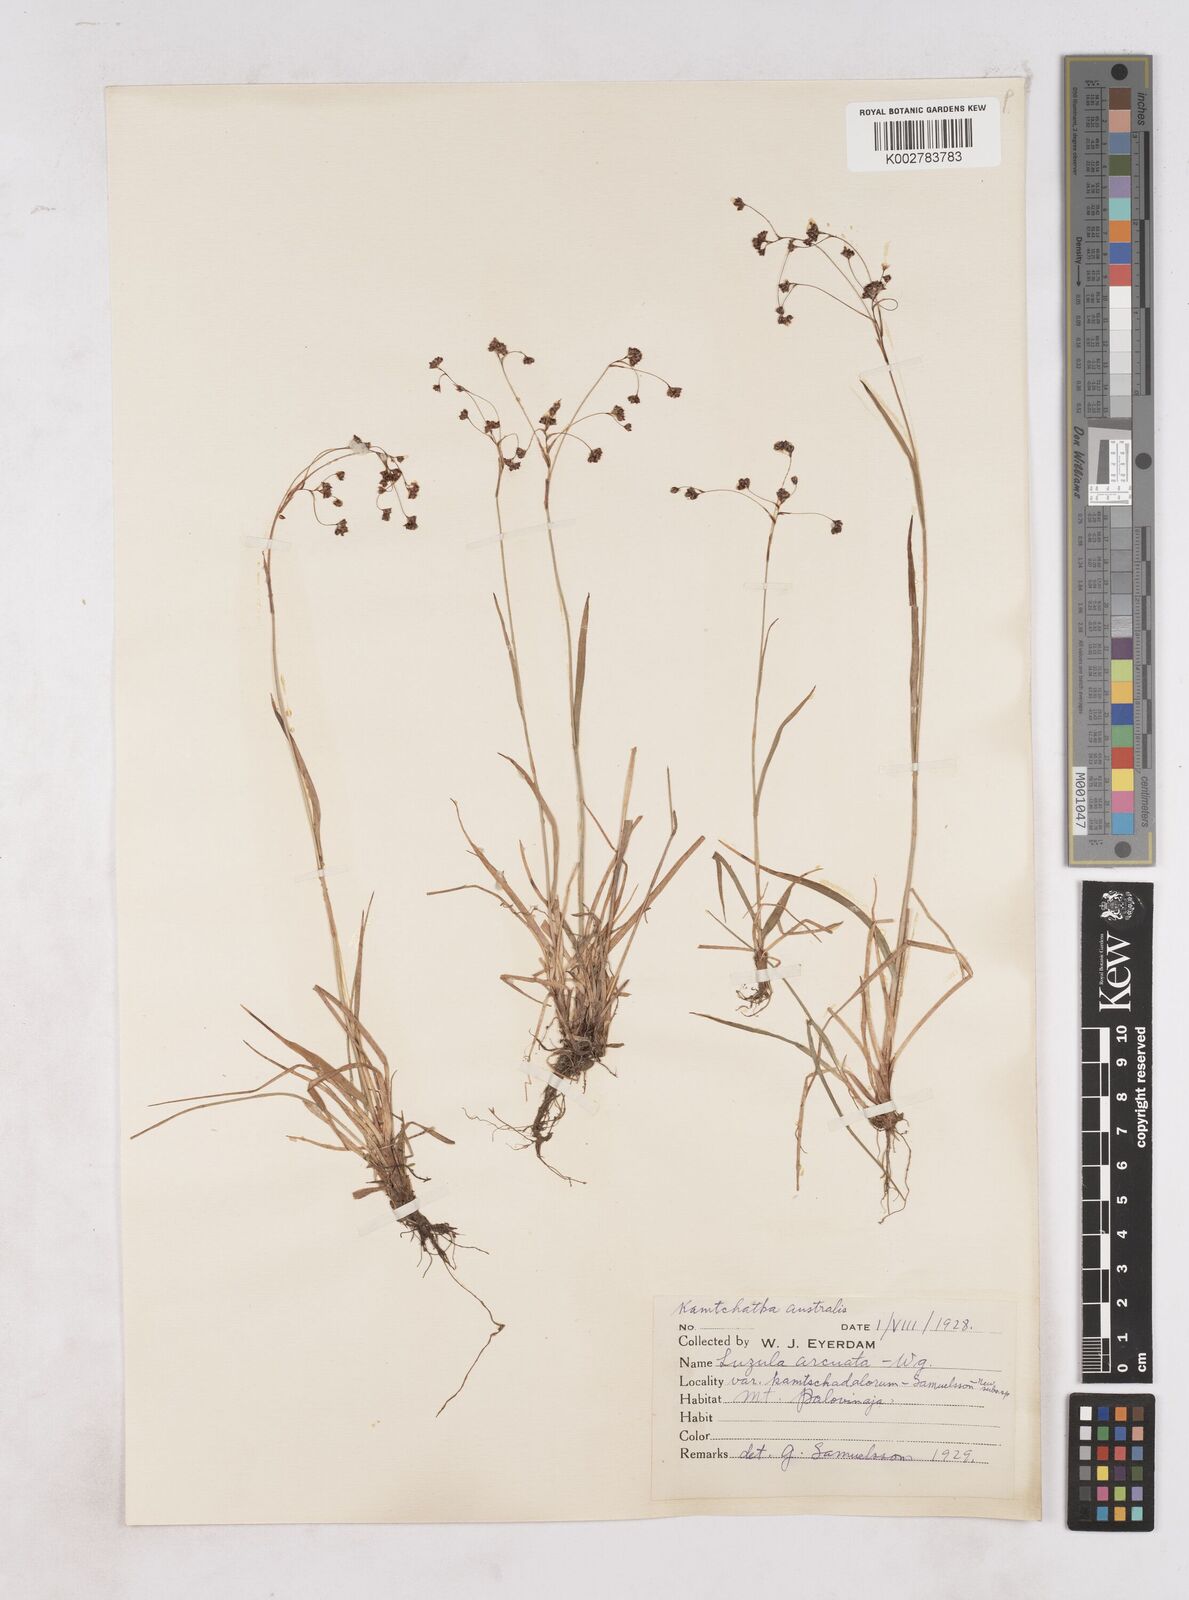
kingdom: Plantae
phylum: Tracheophyta
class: Liliopsida
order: Poales
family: Juncaceae
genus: Luzula
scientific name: Luzula wahlenbergii
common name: Wahlenberg's wood-rush
